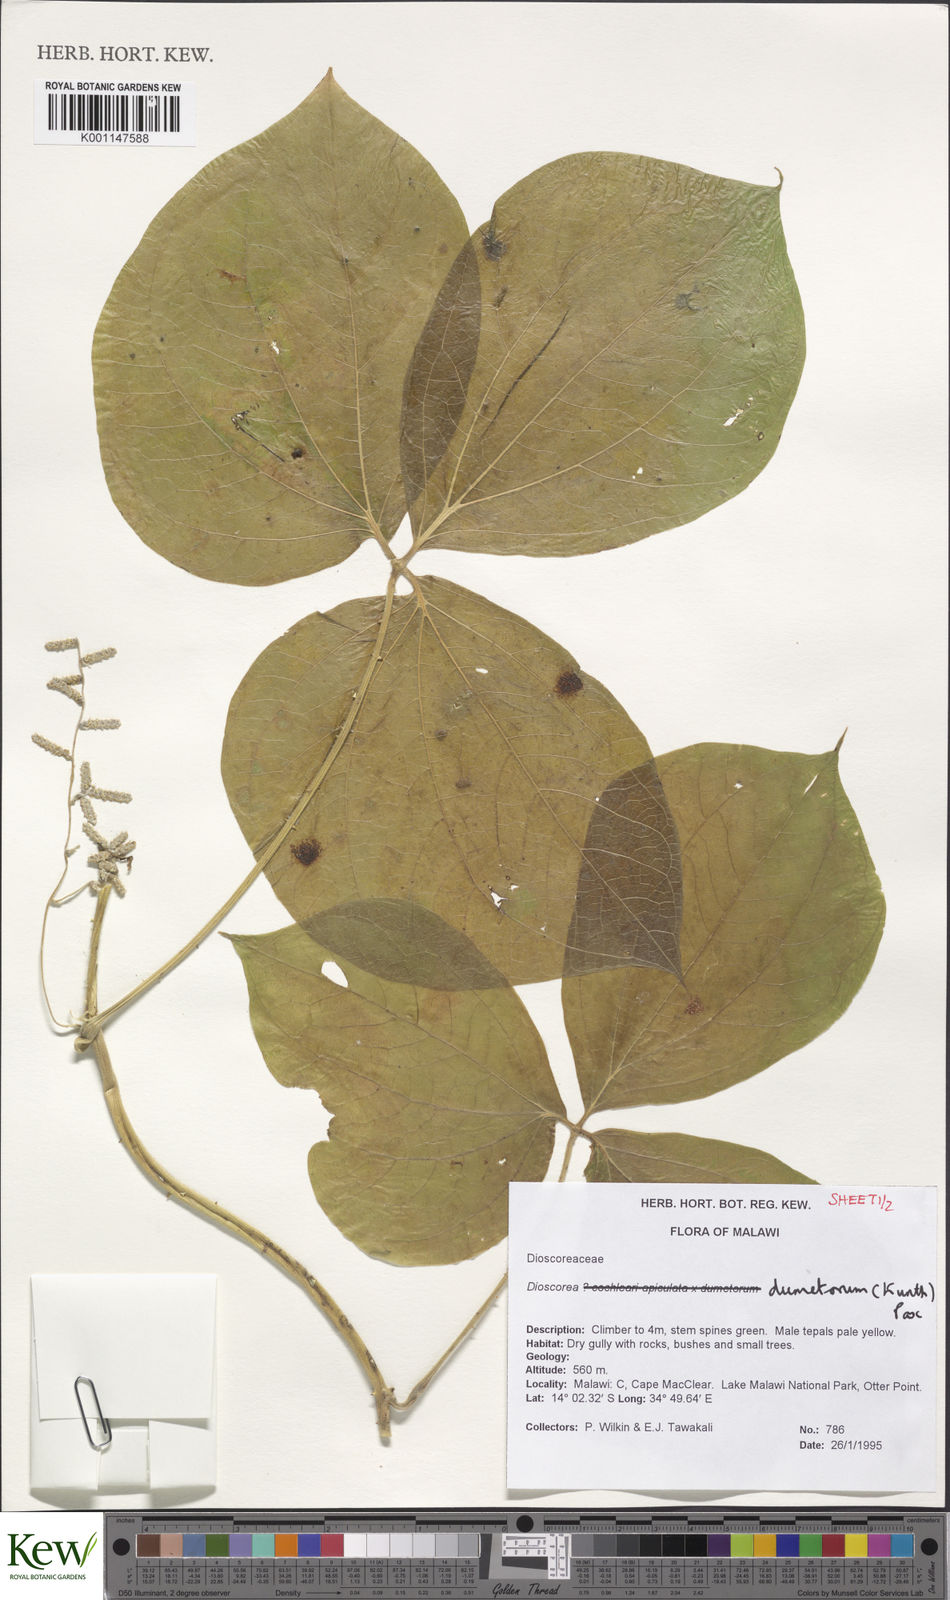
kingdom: Plantae
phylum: Tracheophyta
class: Liliopsida
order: Dioscoreales
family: Dioscoreaceae
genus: Dioscorea
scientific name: Dioscorea dumetorum
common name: African bitter yam
